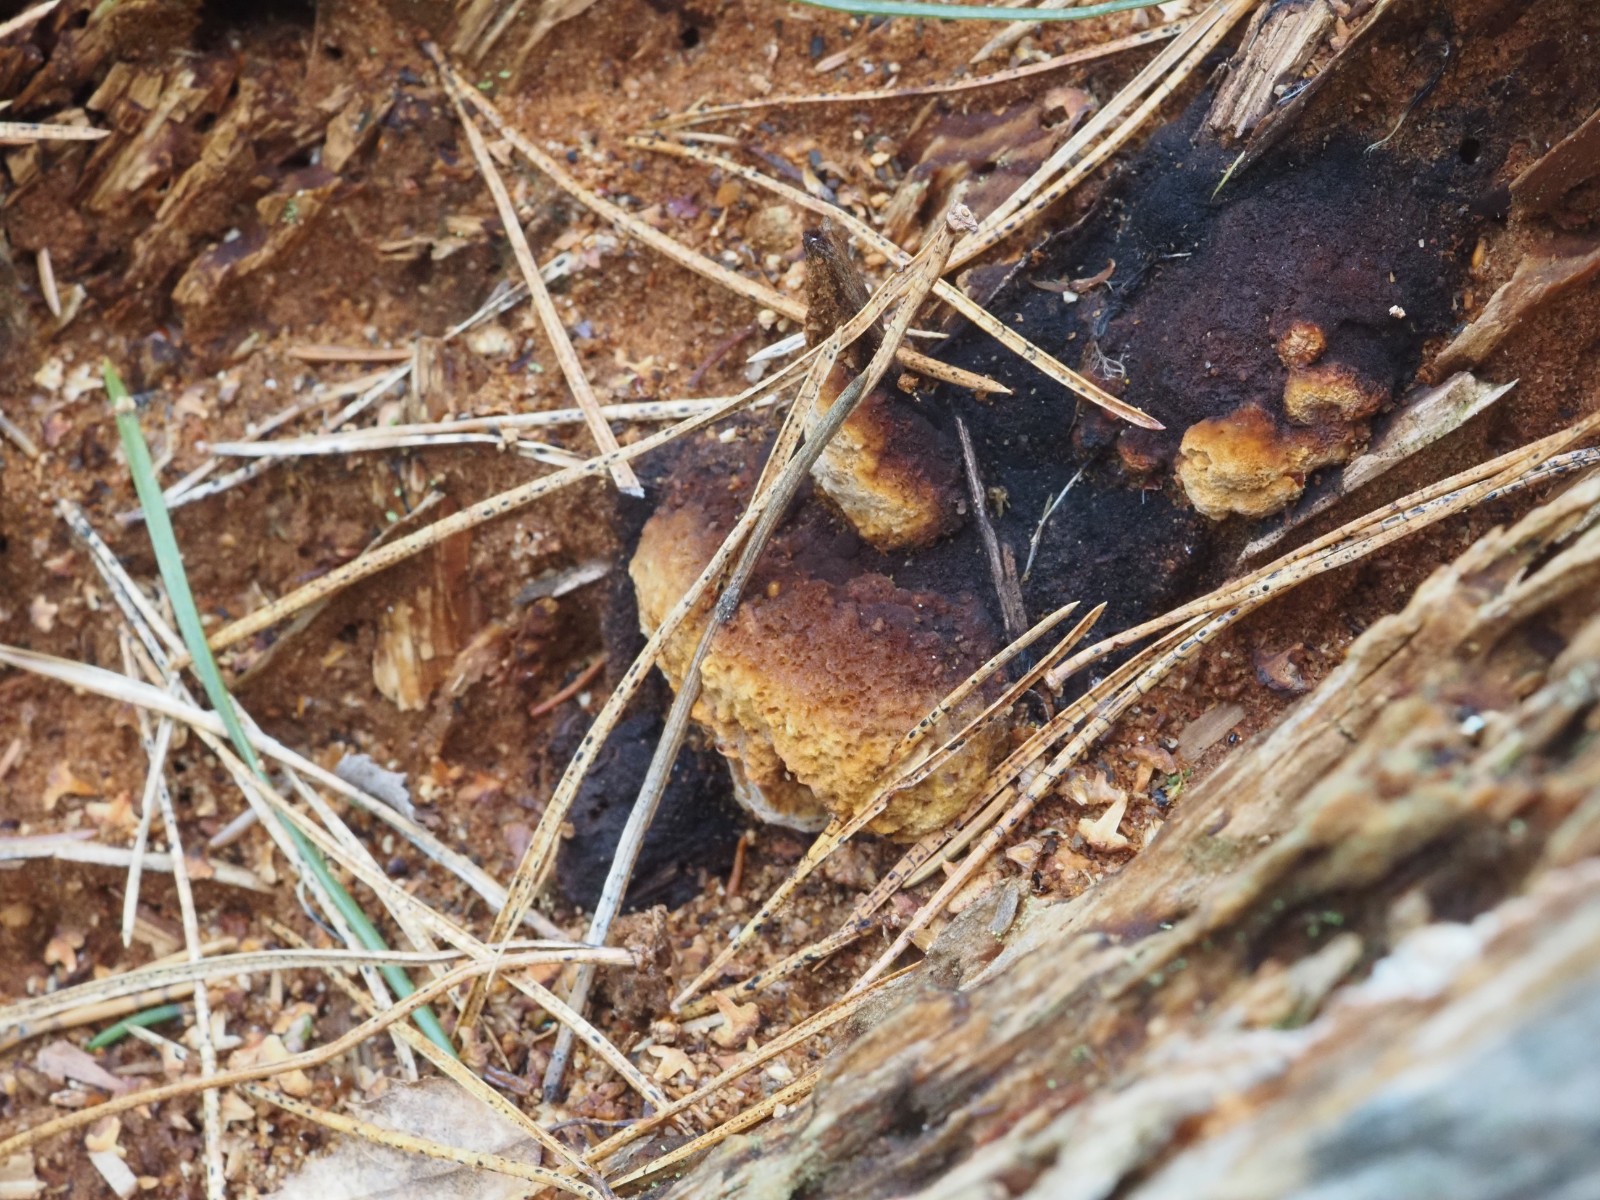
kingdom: Fungi
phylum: Basidiomycota
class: Agaricomycetes
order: Gloeophyllales
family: Gloeophyllaceae
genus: Gloeophyllum
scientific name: Gloeophyllum odoratum
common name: duftende korkhat
